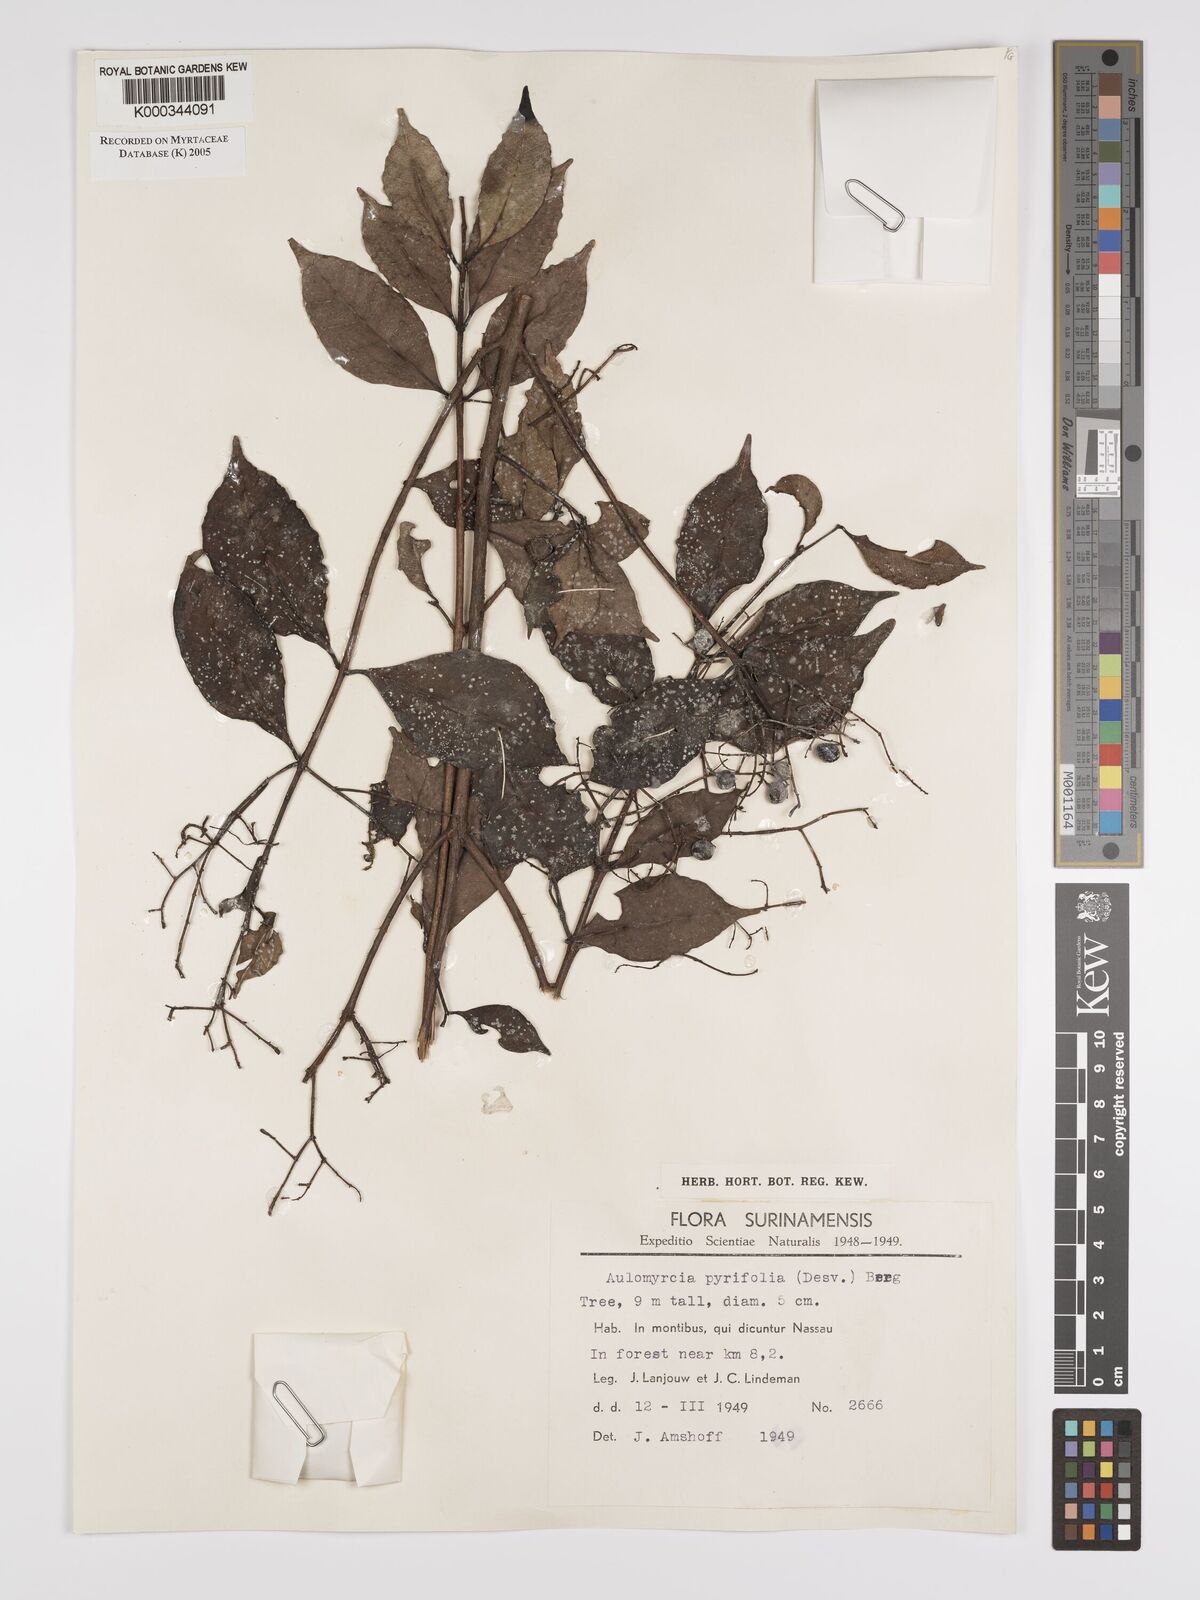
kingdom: Plantae
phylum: Tracheophyta
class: Magnoliopsida
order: Myrtales
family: Myrtaceae
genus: Myrcia
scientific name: Myrcia pyrifolia
